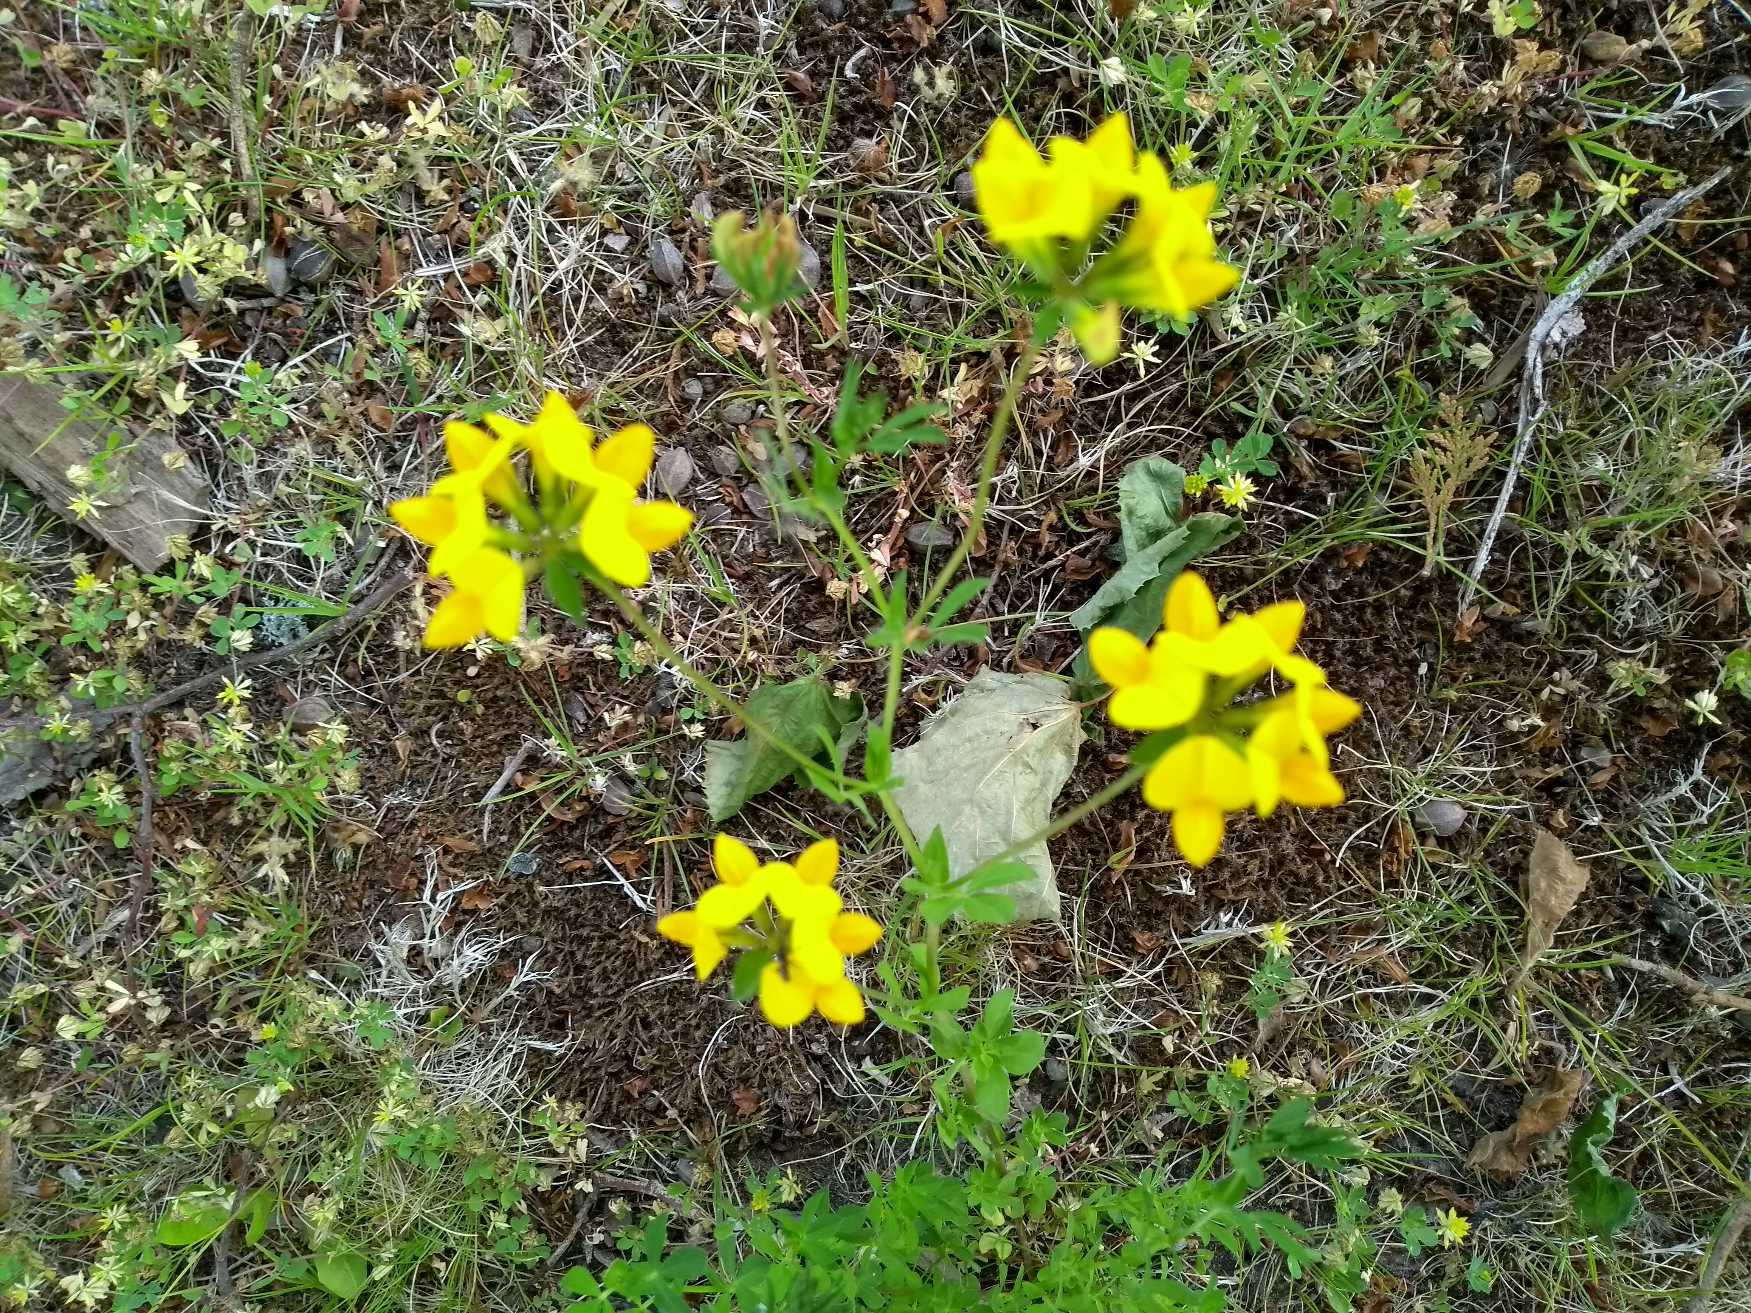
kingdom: Plantae
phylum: Tracheophyta
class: Magnoliopsida
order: Fabales
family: Fabaceae
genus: Lotus
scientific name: Lotus corniculatus
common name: Almindelig kællingetand
